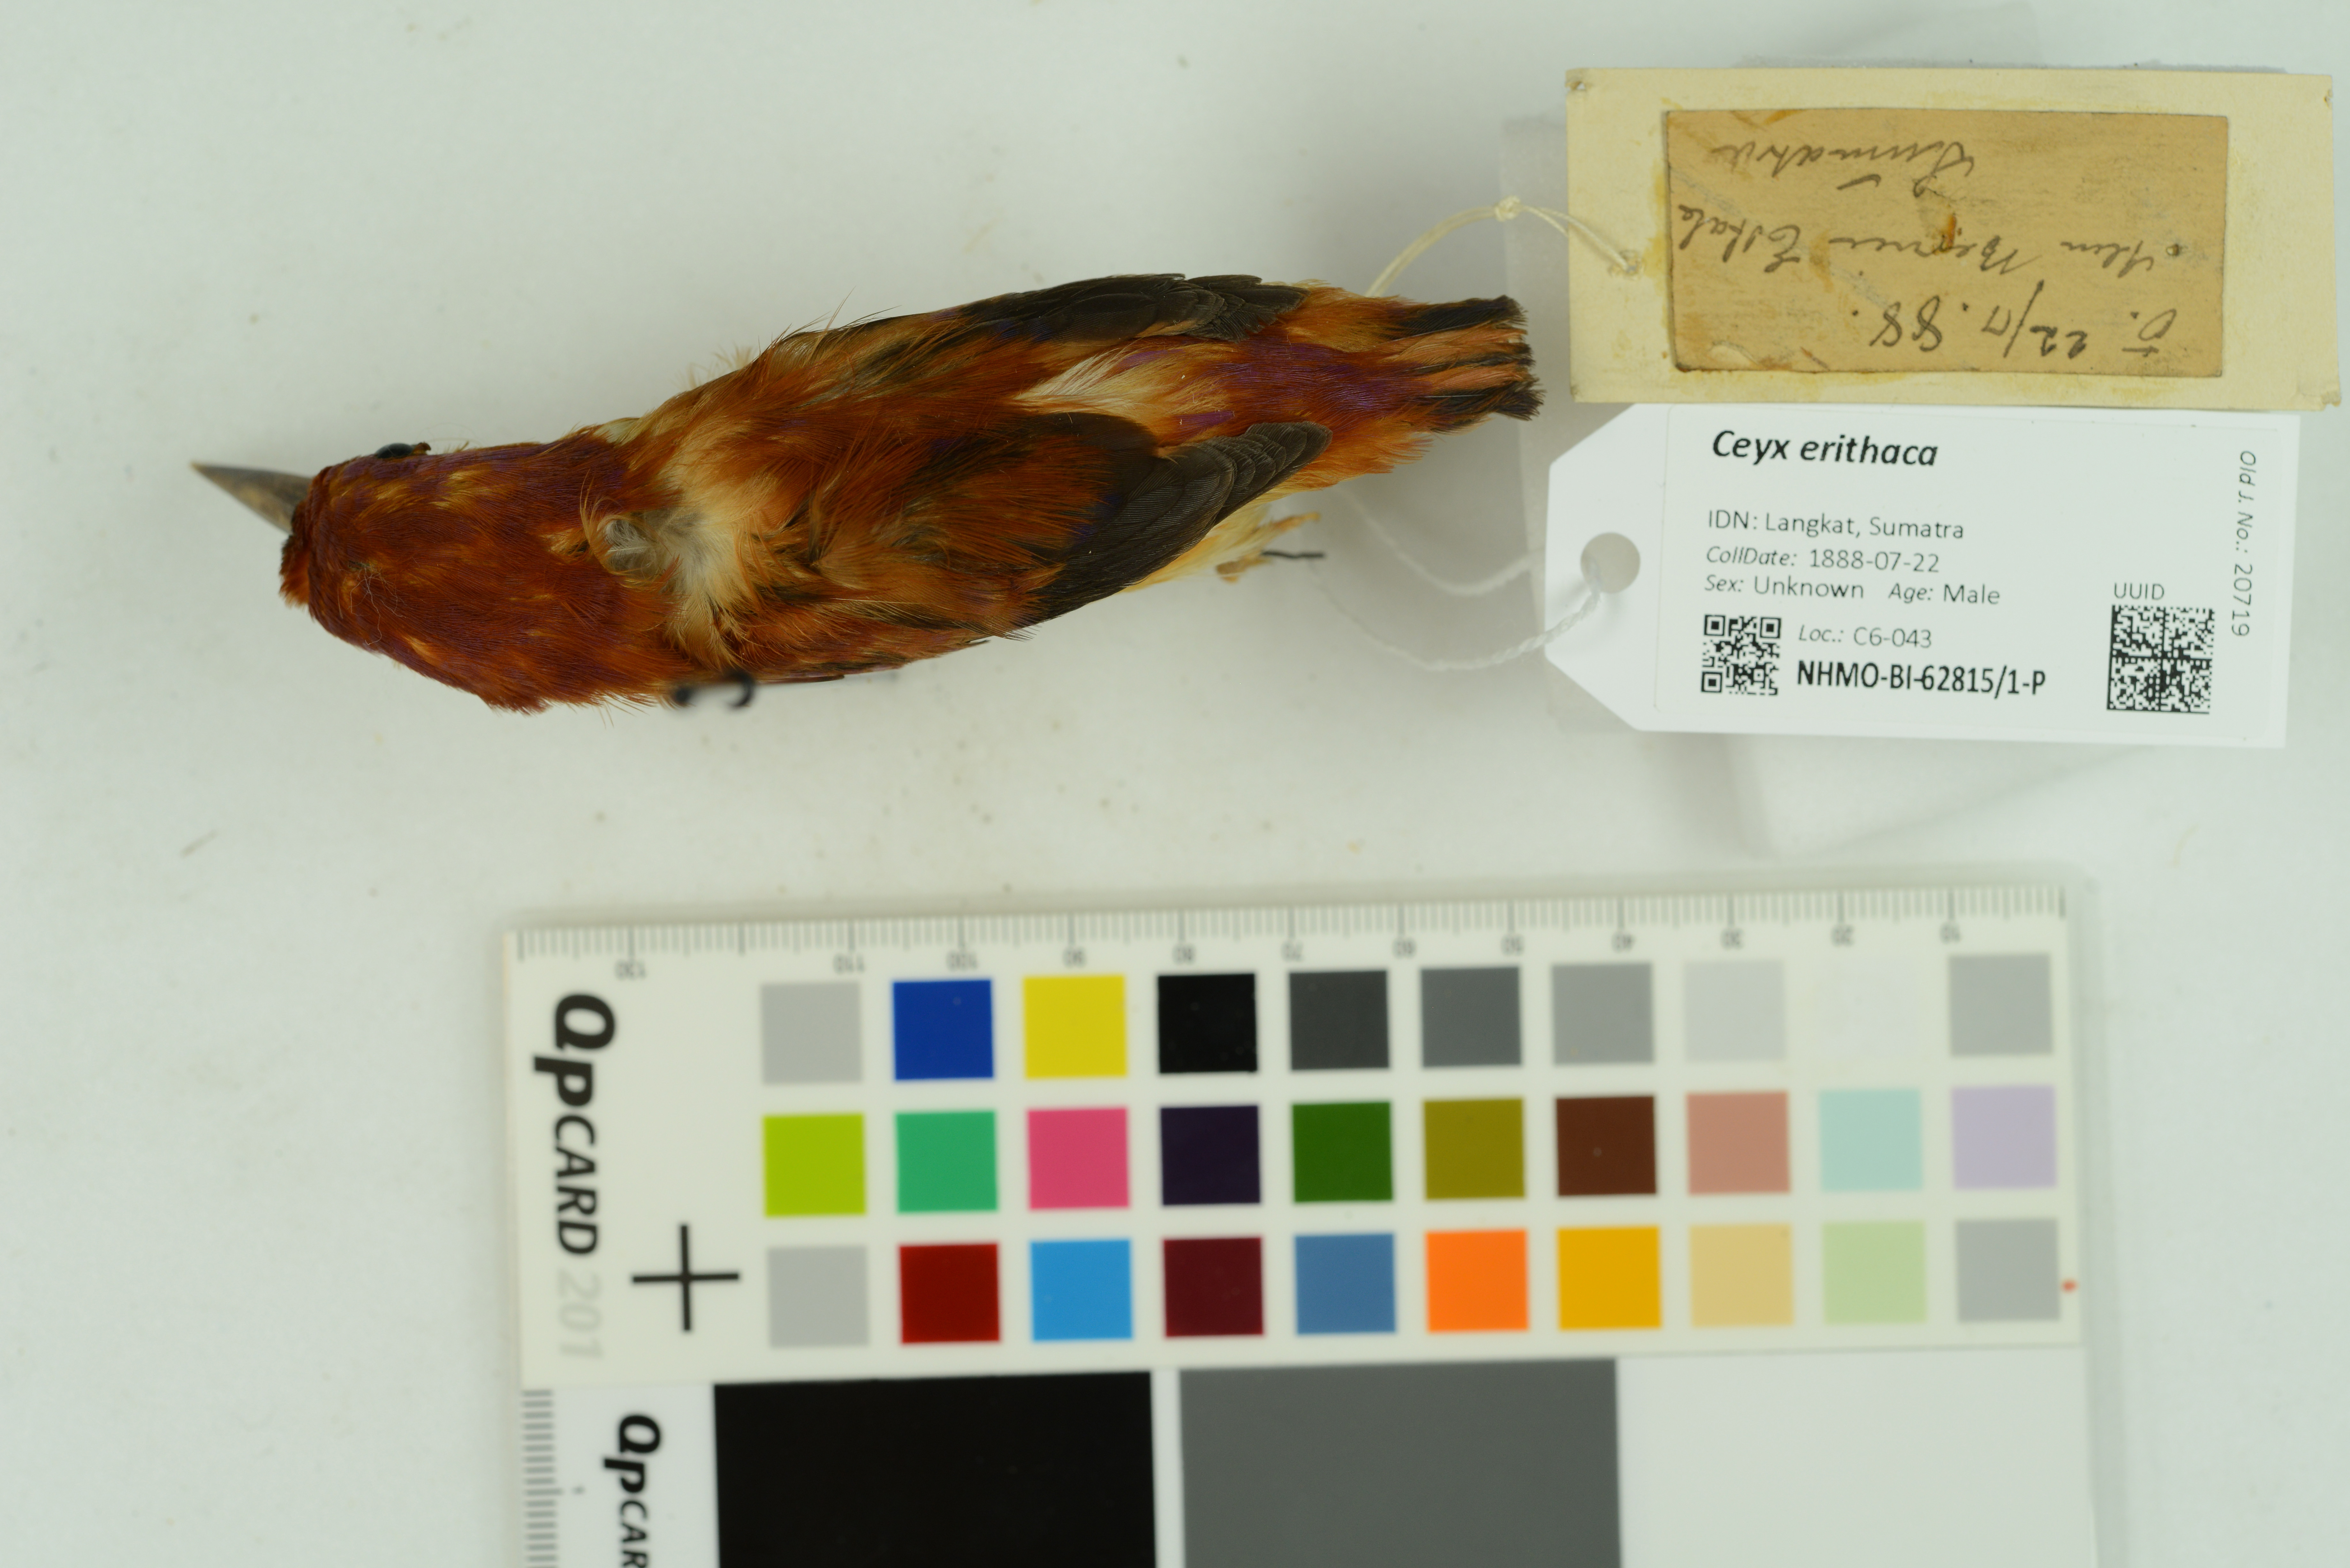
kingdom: Animalia
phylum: Chordata
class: Aves
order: Coraciiformes
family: Alcedinidae
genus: Ceyx
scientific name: Ceyx erithaca
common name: Oriental dwarf kingfisher
